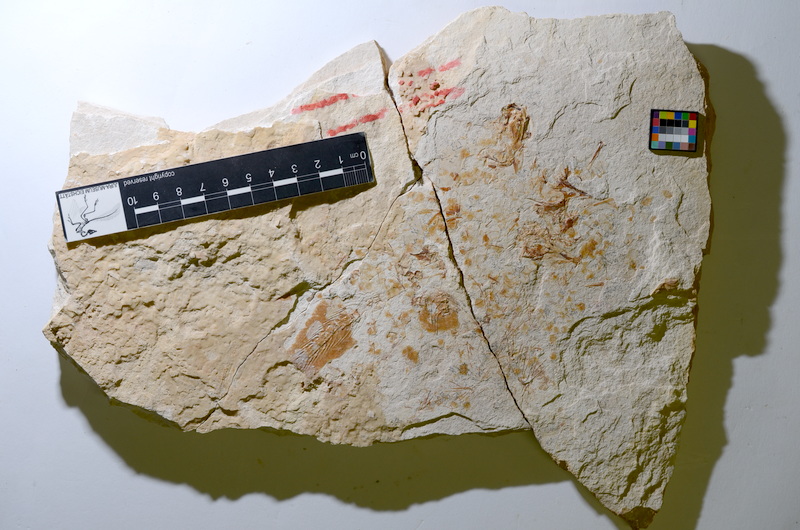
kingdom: Animalia
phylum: Chordata
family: Ascalaboidae
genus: Tharsis
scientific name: Tharsis dubius
